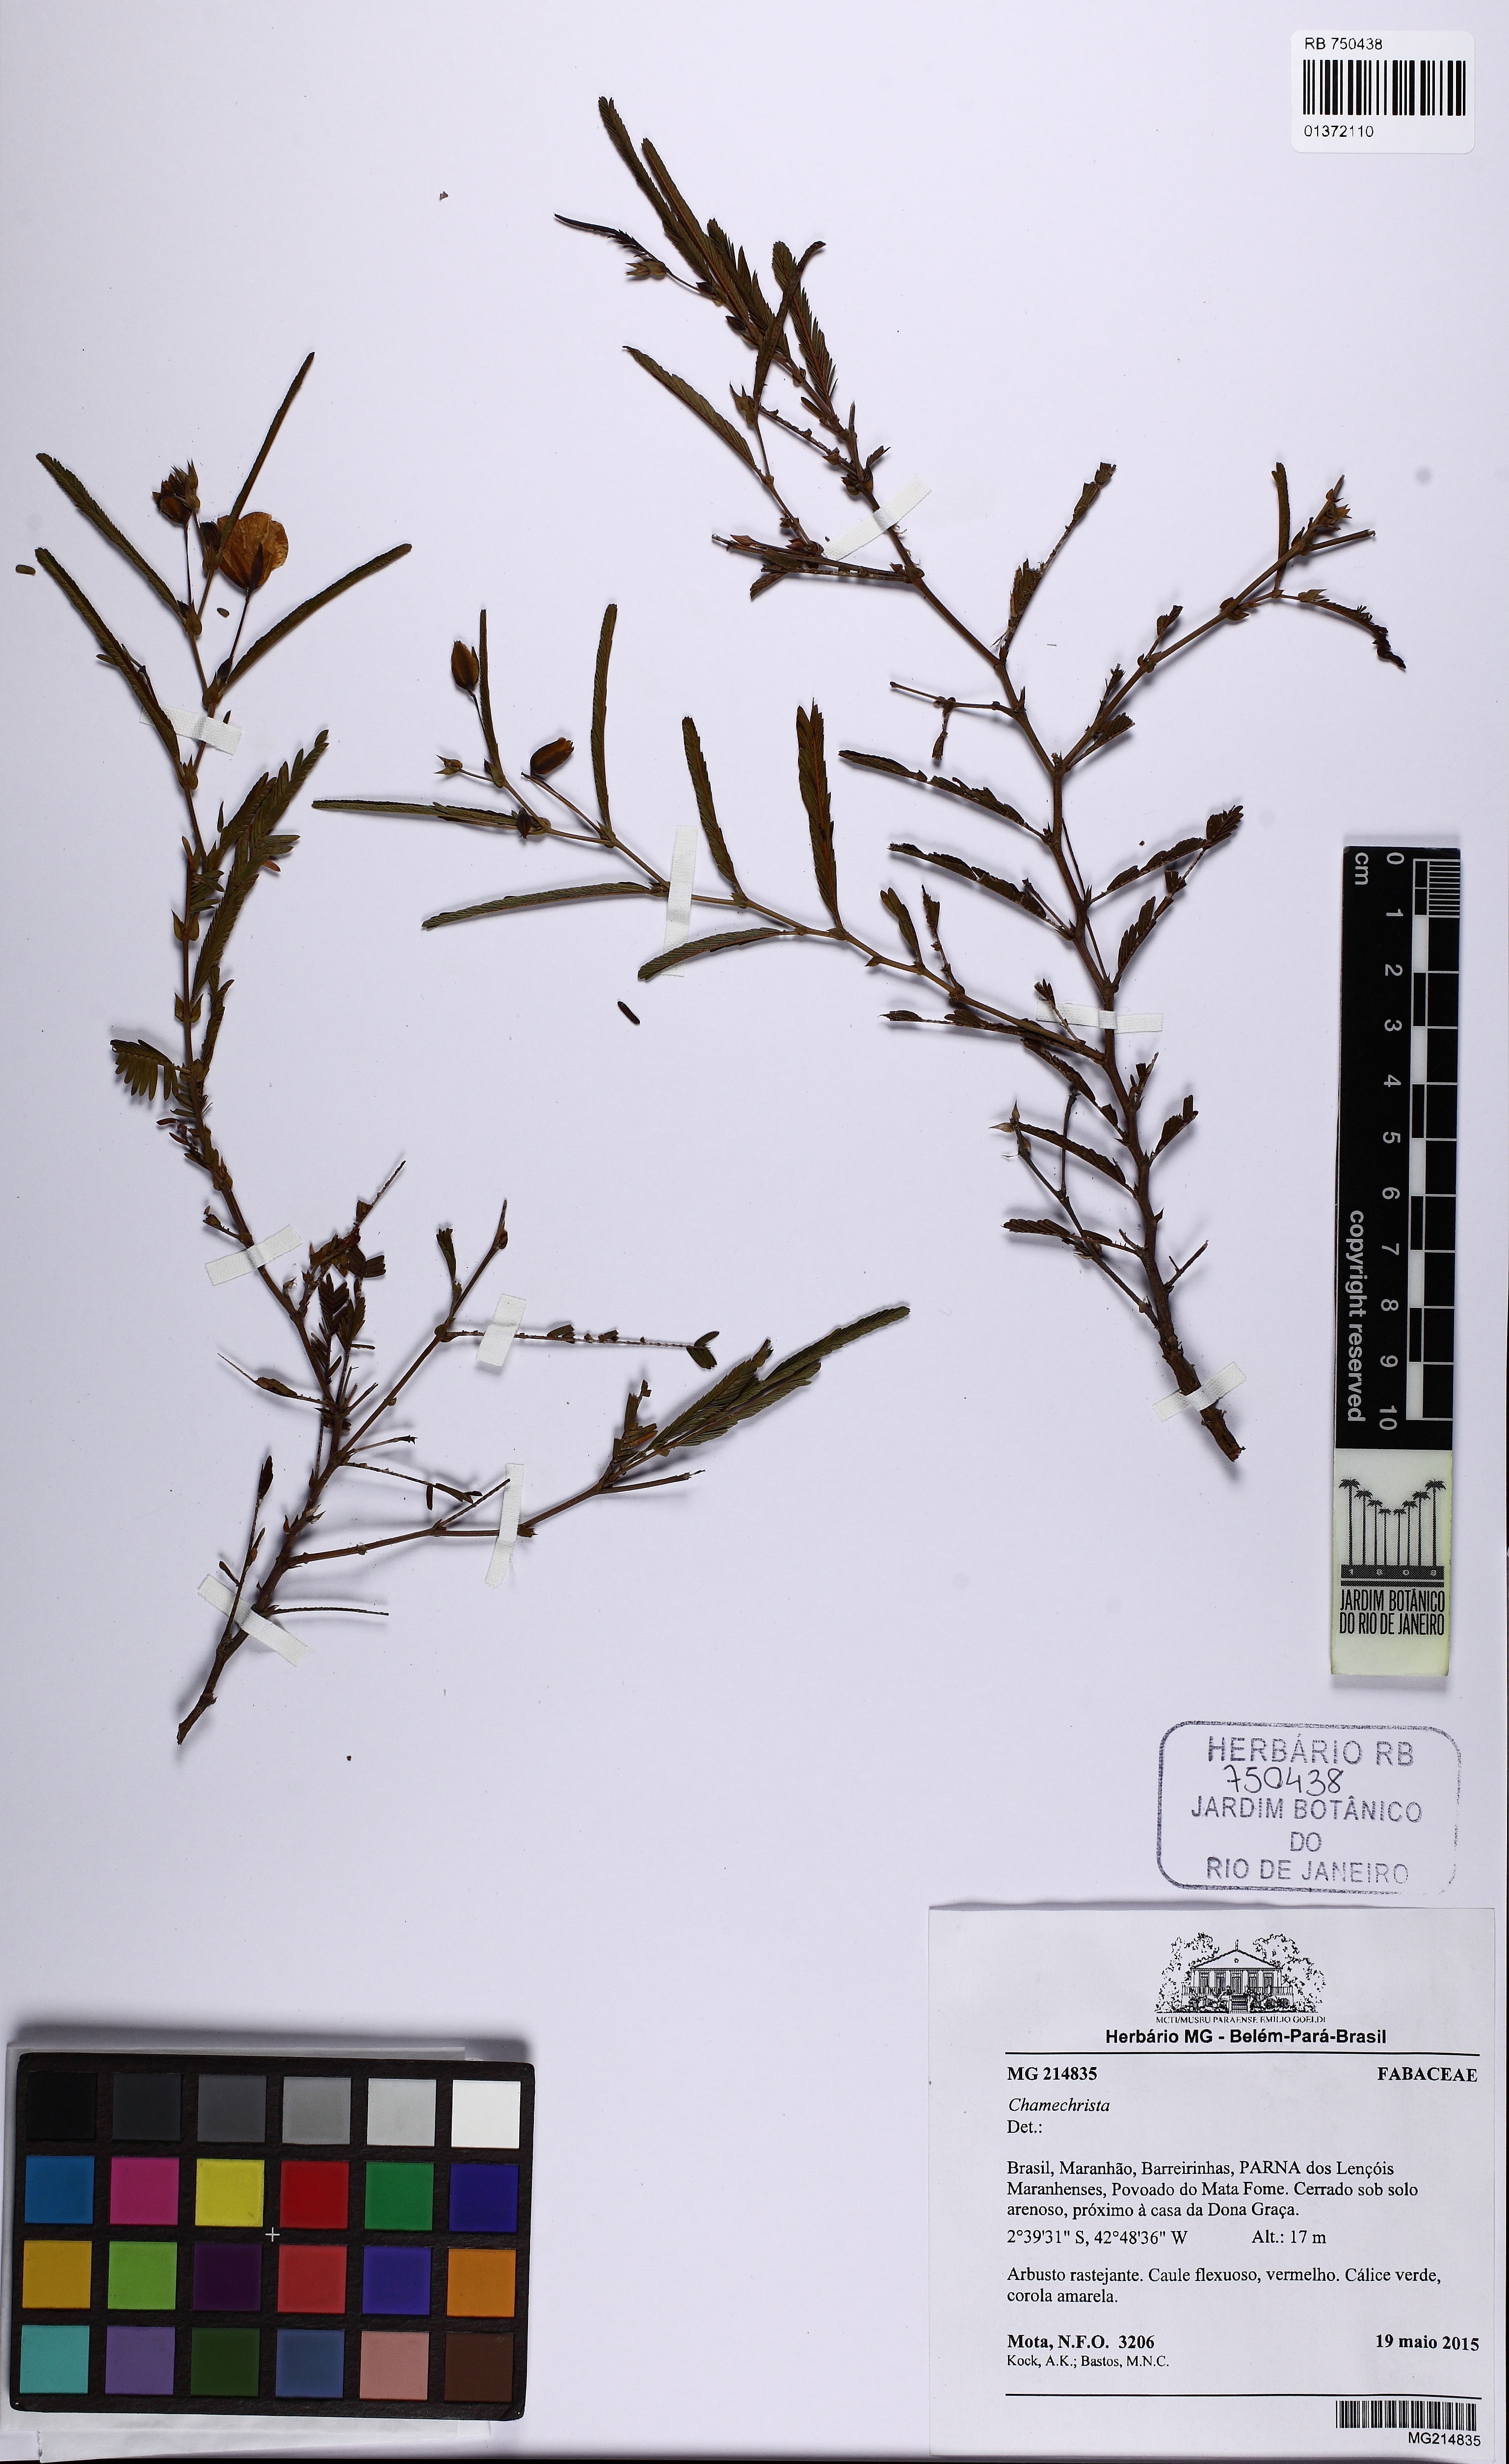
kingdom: Plantae
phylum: Tracheophyta
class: Magnoliopsida
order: Fabales
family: Fabaceae
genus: Chamaecrista
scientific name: Chamaecrista flexuosa
